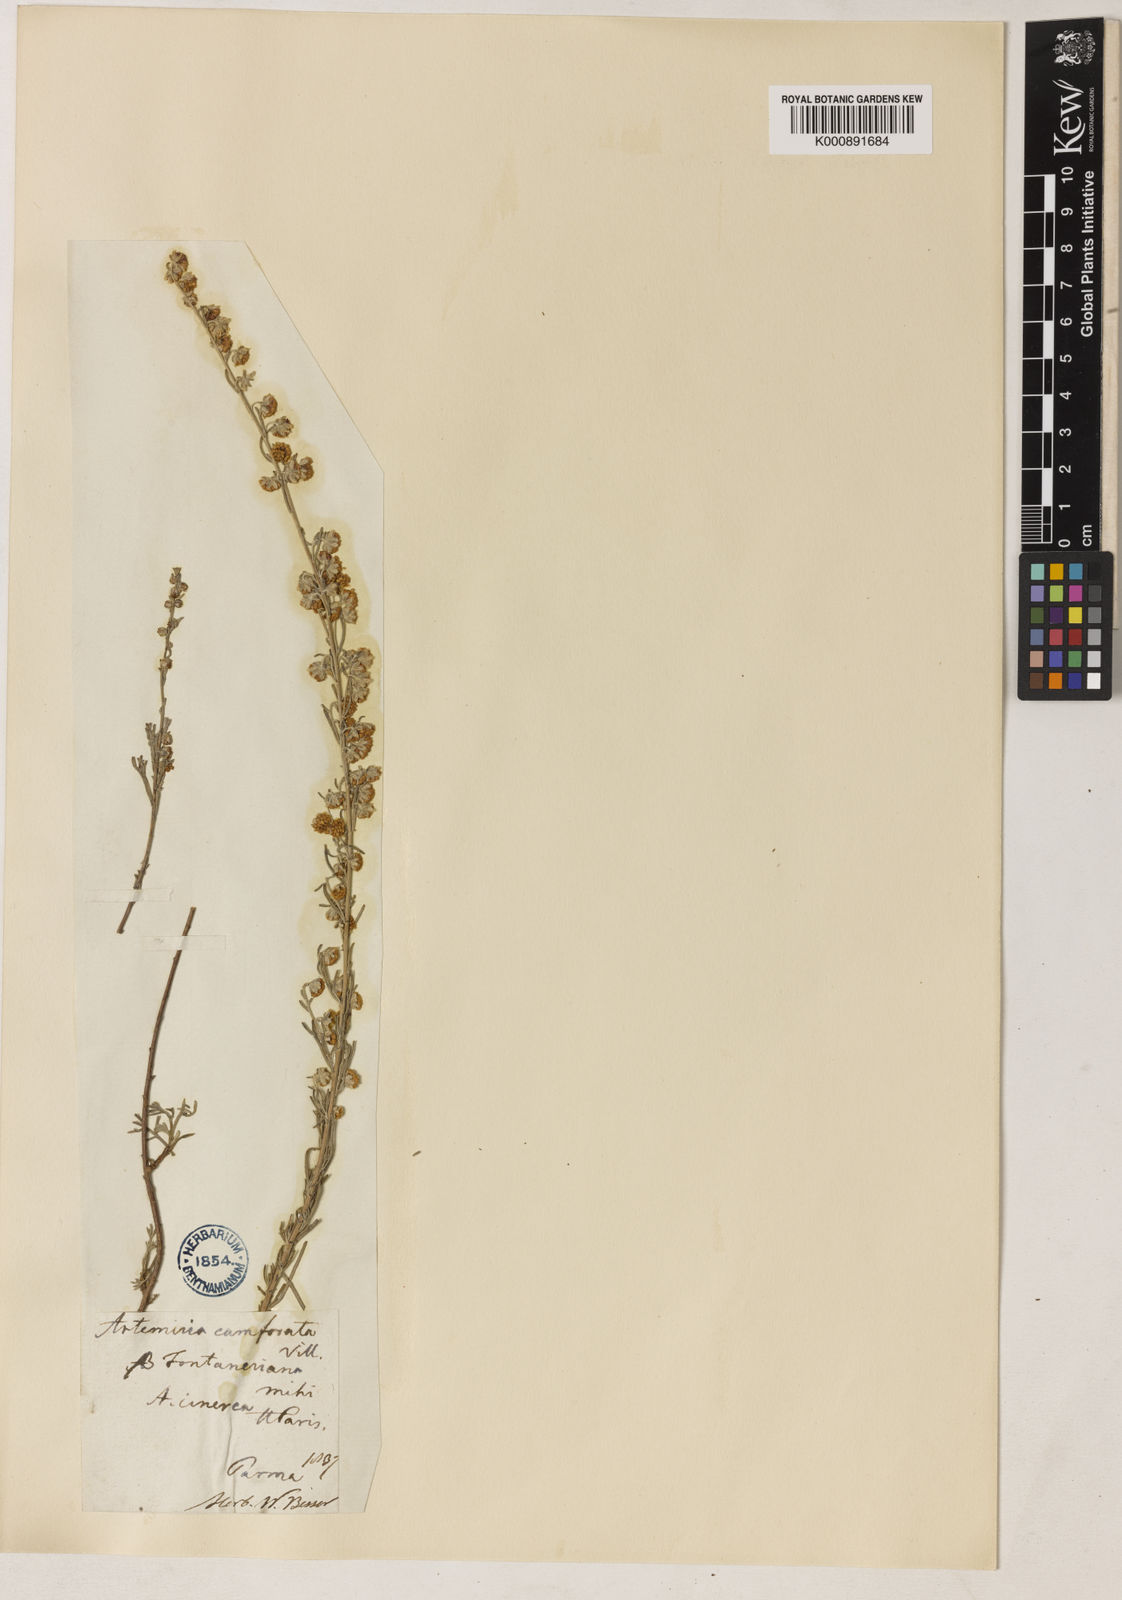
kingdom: Plantae
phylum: Tracheophyta
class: Magnoliopsida
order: Asterales
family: Asteraceae
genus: Artemisia
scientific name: Artemisia alba
